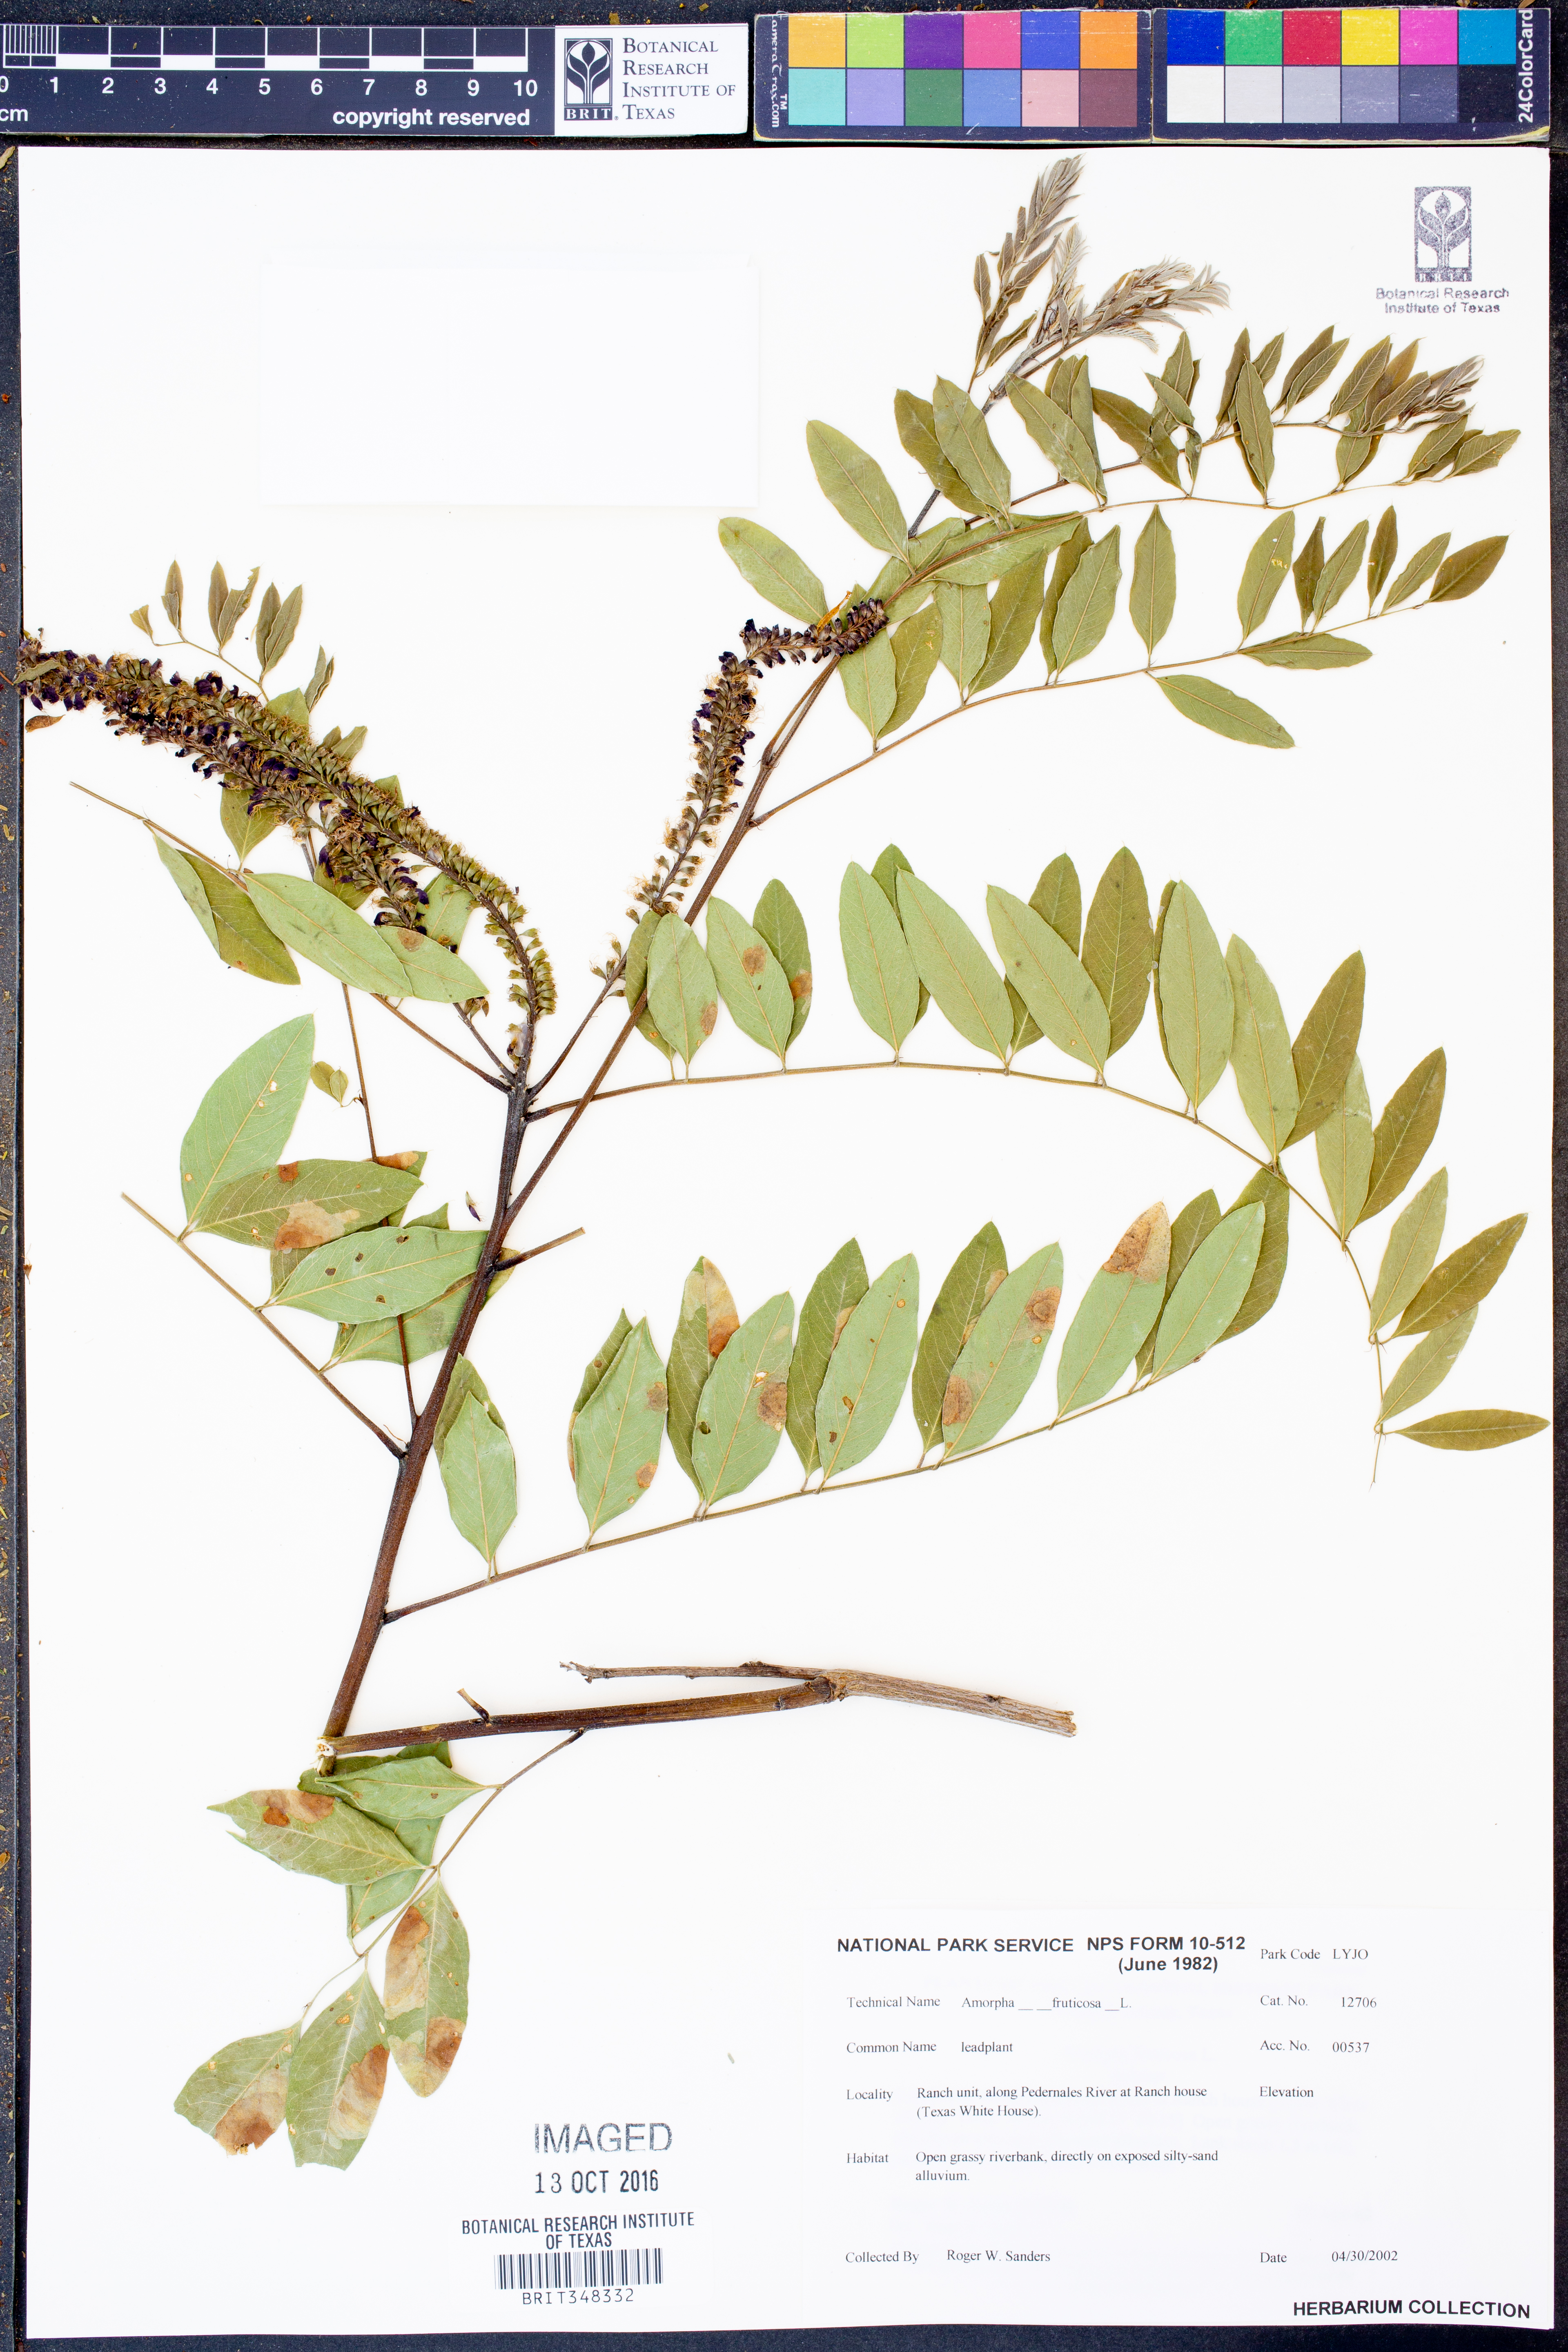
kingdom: Plantae
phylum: Tracheophyta
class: Magnoliopsida
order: Fabales
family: Fabaceae
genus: Amorpha
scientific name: Amorpha fruticosa
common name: False indigo
